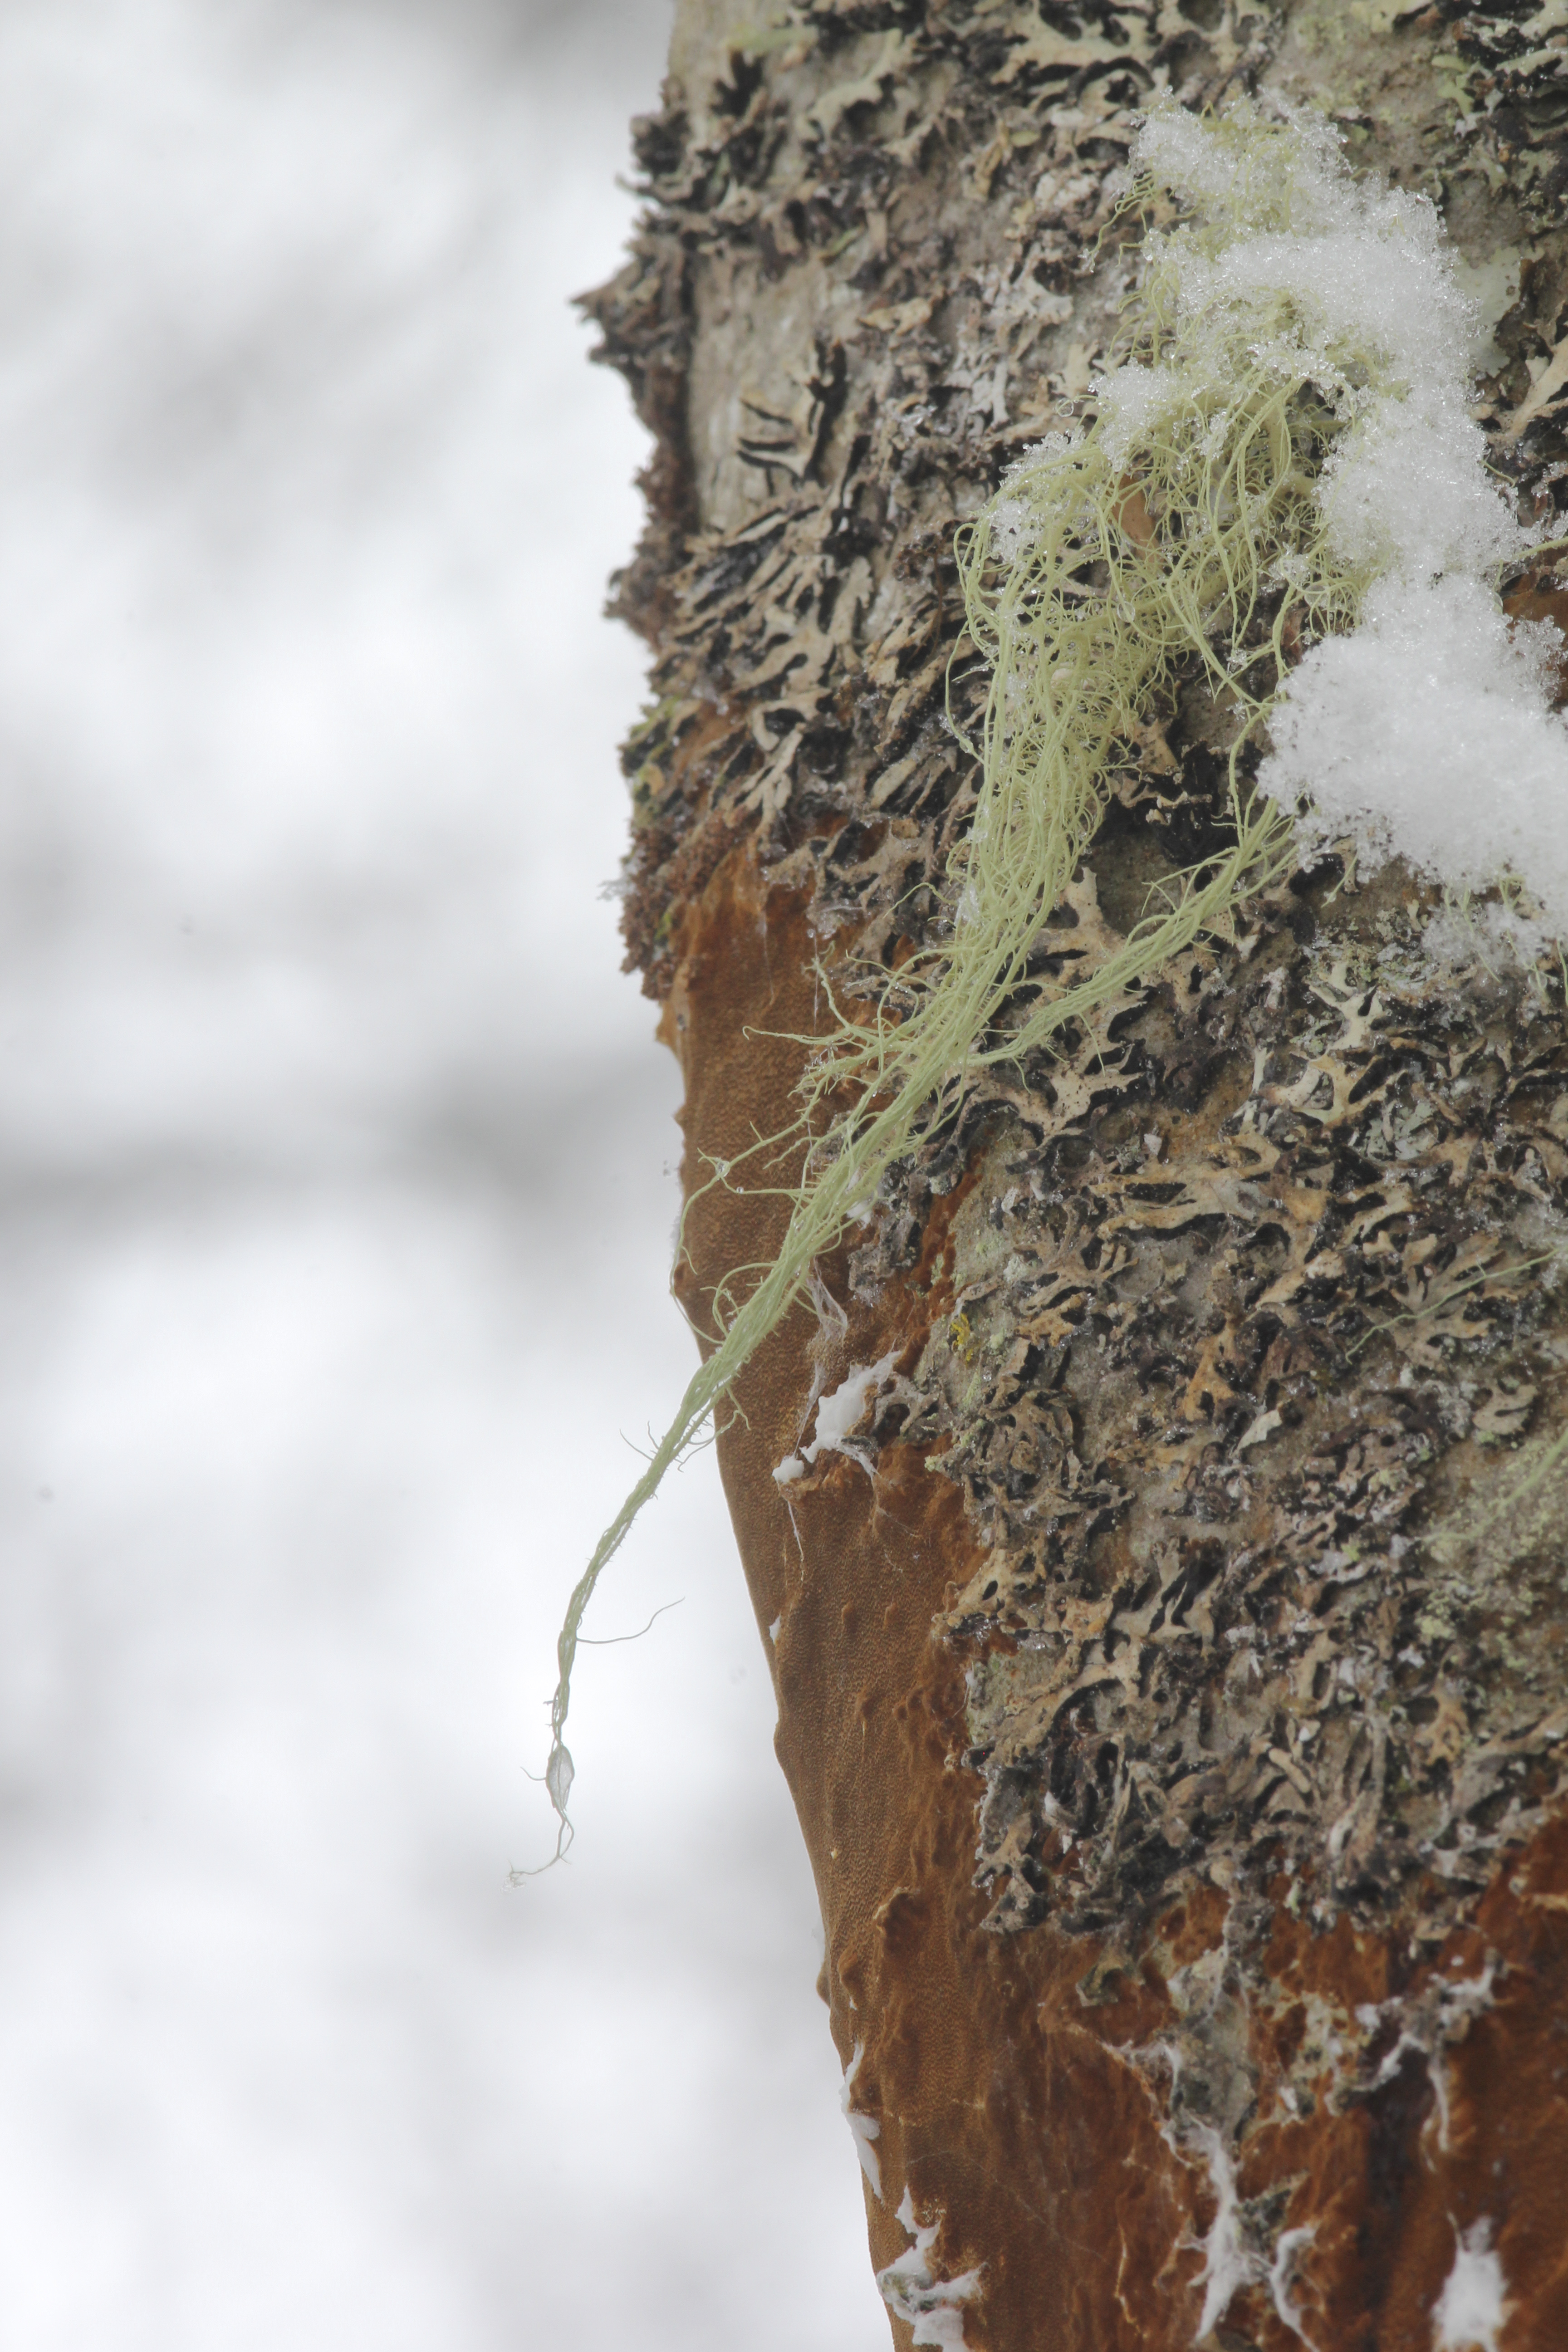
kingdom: Fungi
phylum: Ascomycota
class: Lecanoromycetes
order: Lecanorales
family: Parmeliaceae
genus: Alectoria
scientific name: Alectoria
